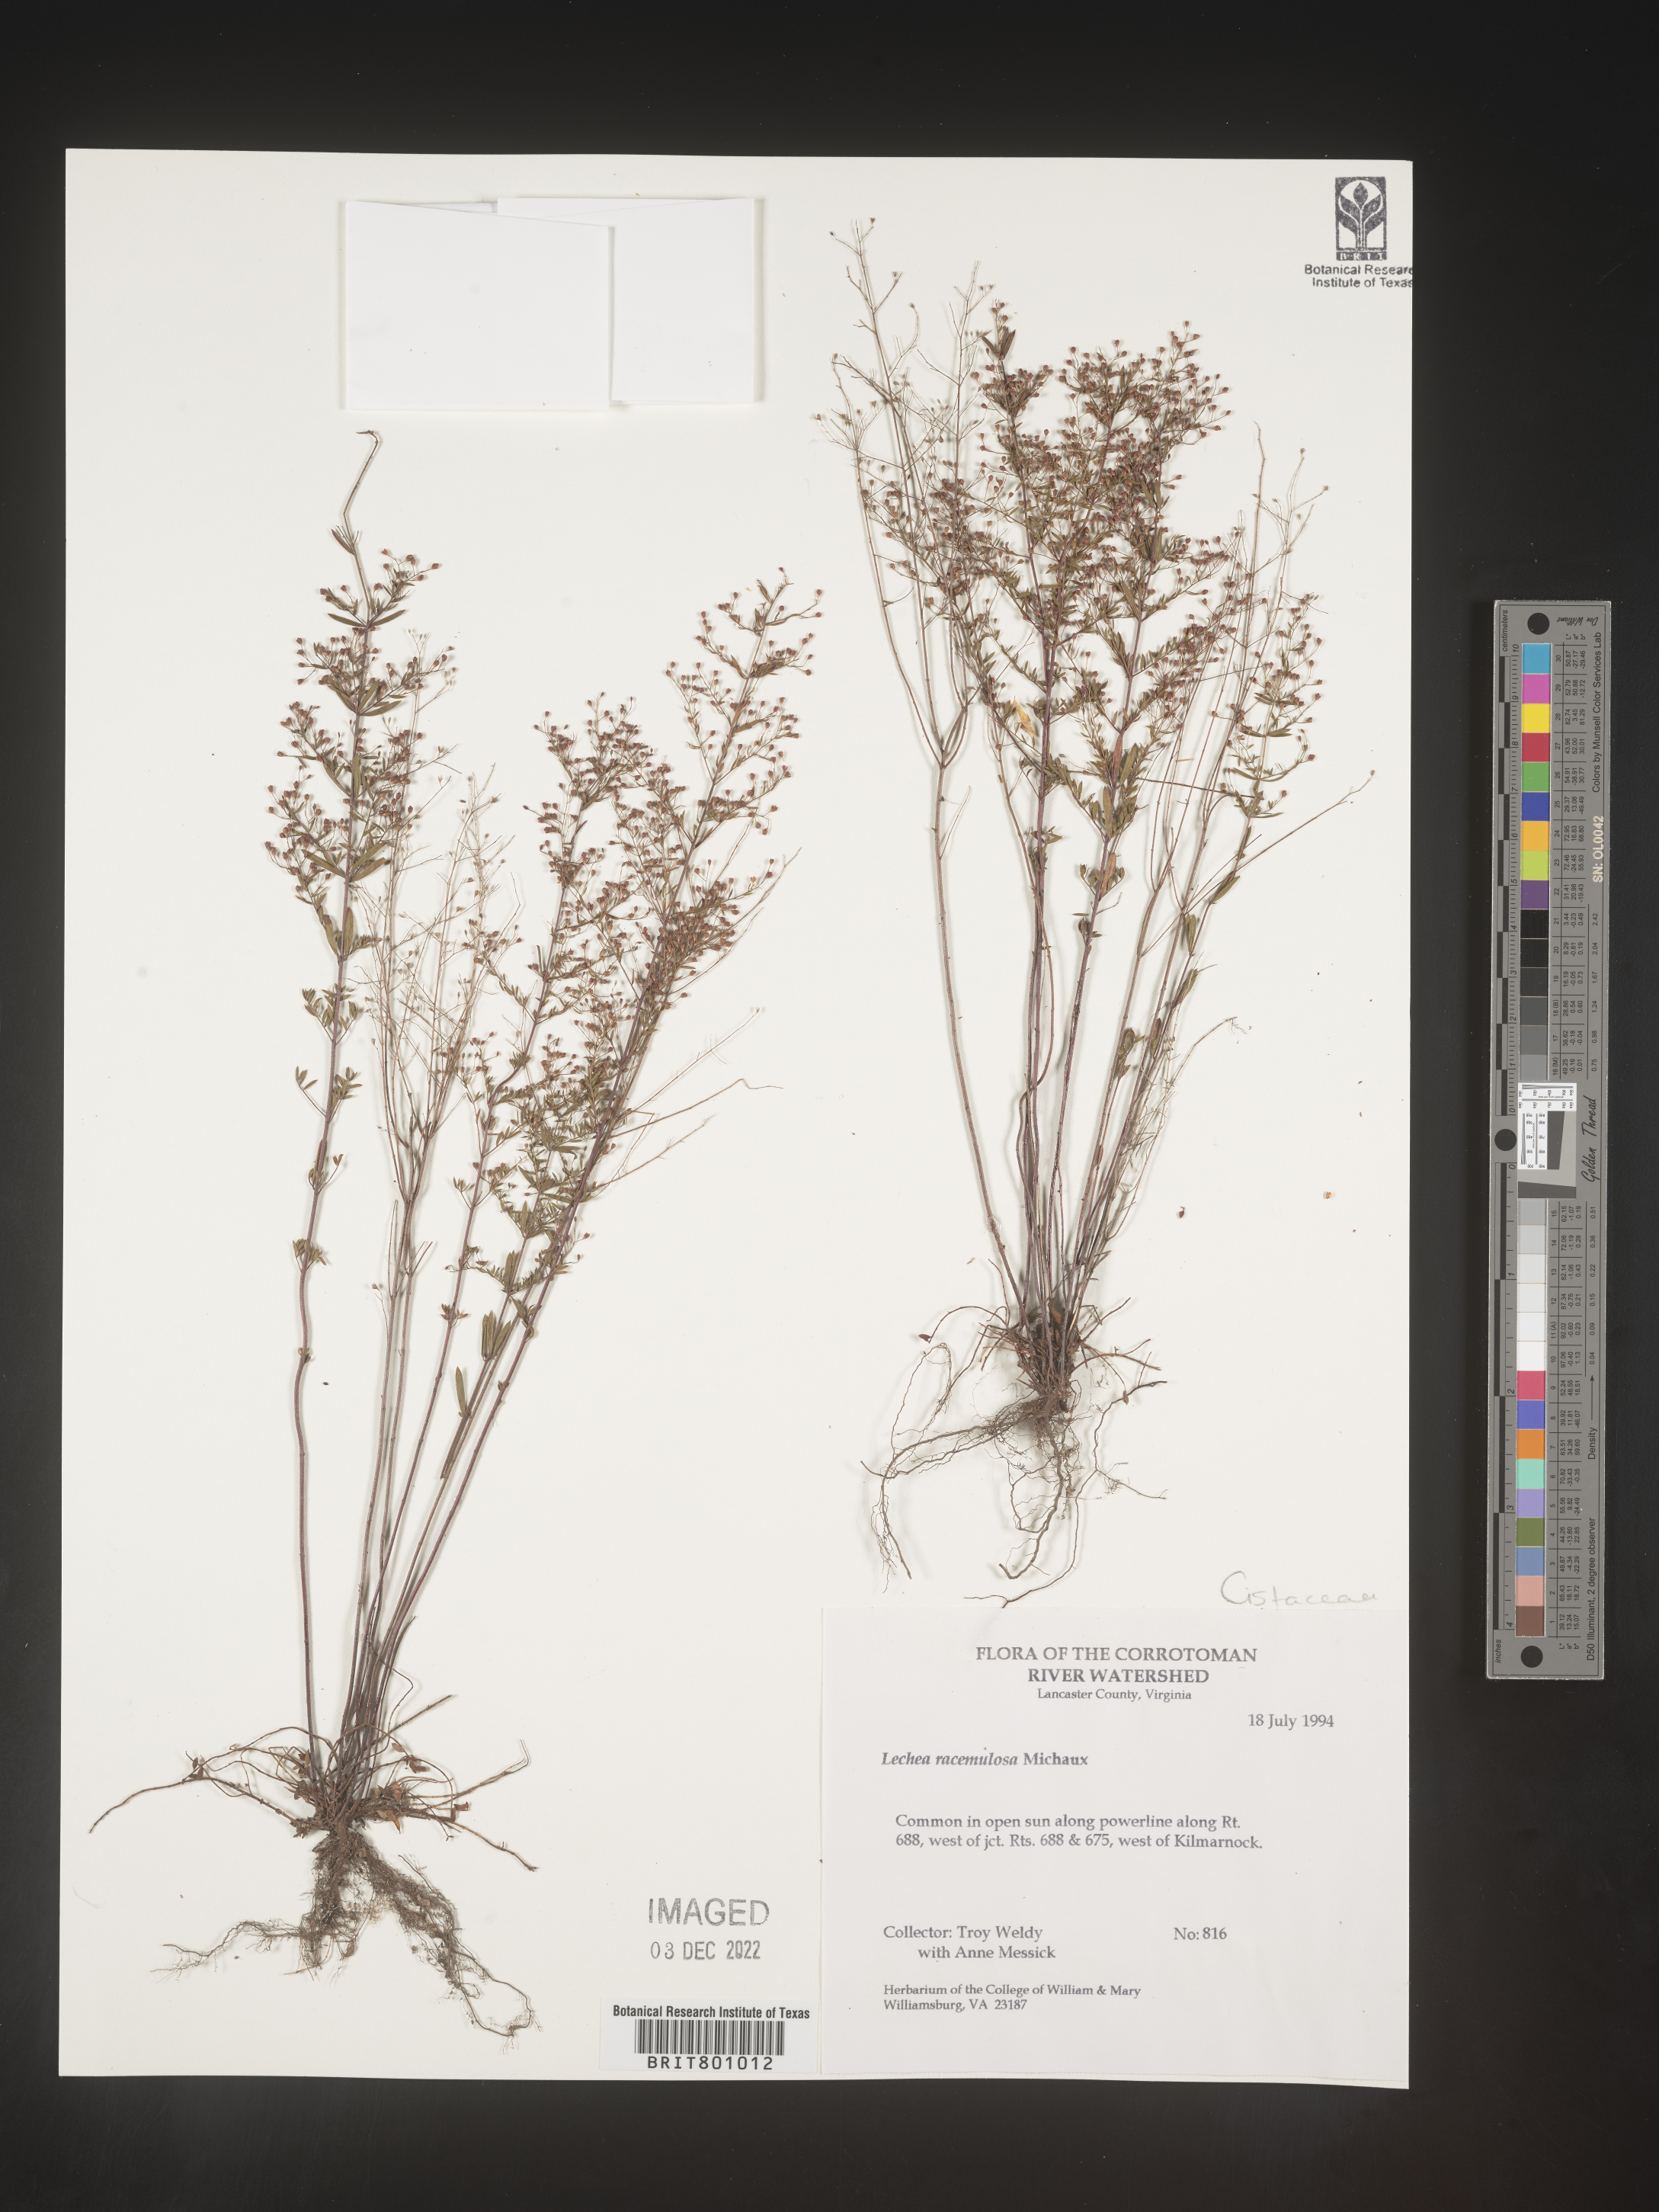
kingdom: Plantae
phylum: Tracheophyta
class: Magnoliopsida
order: Malvales
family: Cistaceae
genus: Lechea
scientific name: Lechea racemulosa
